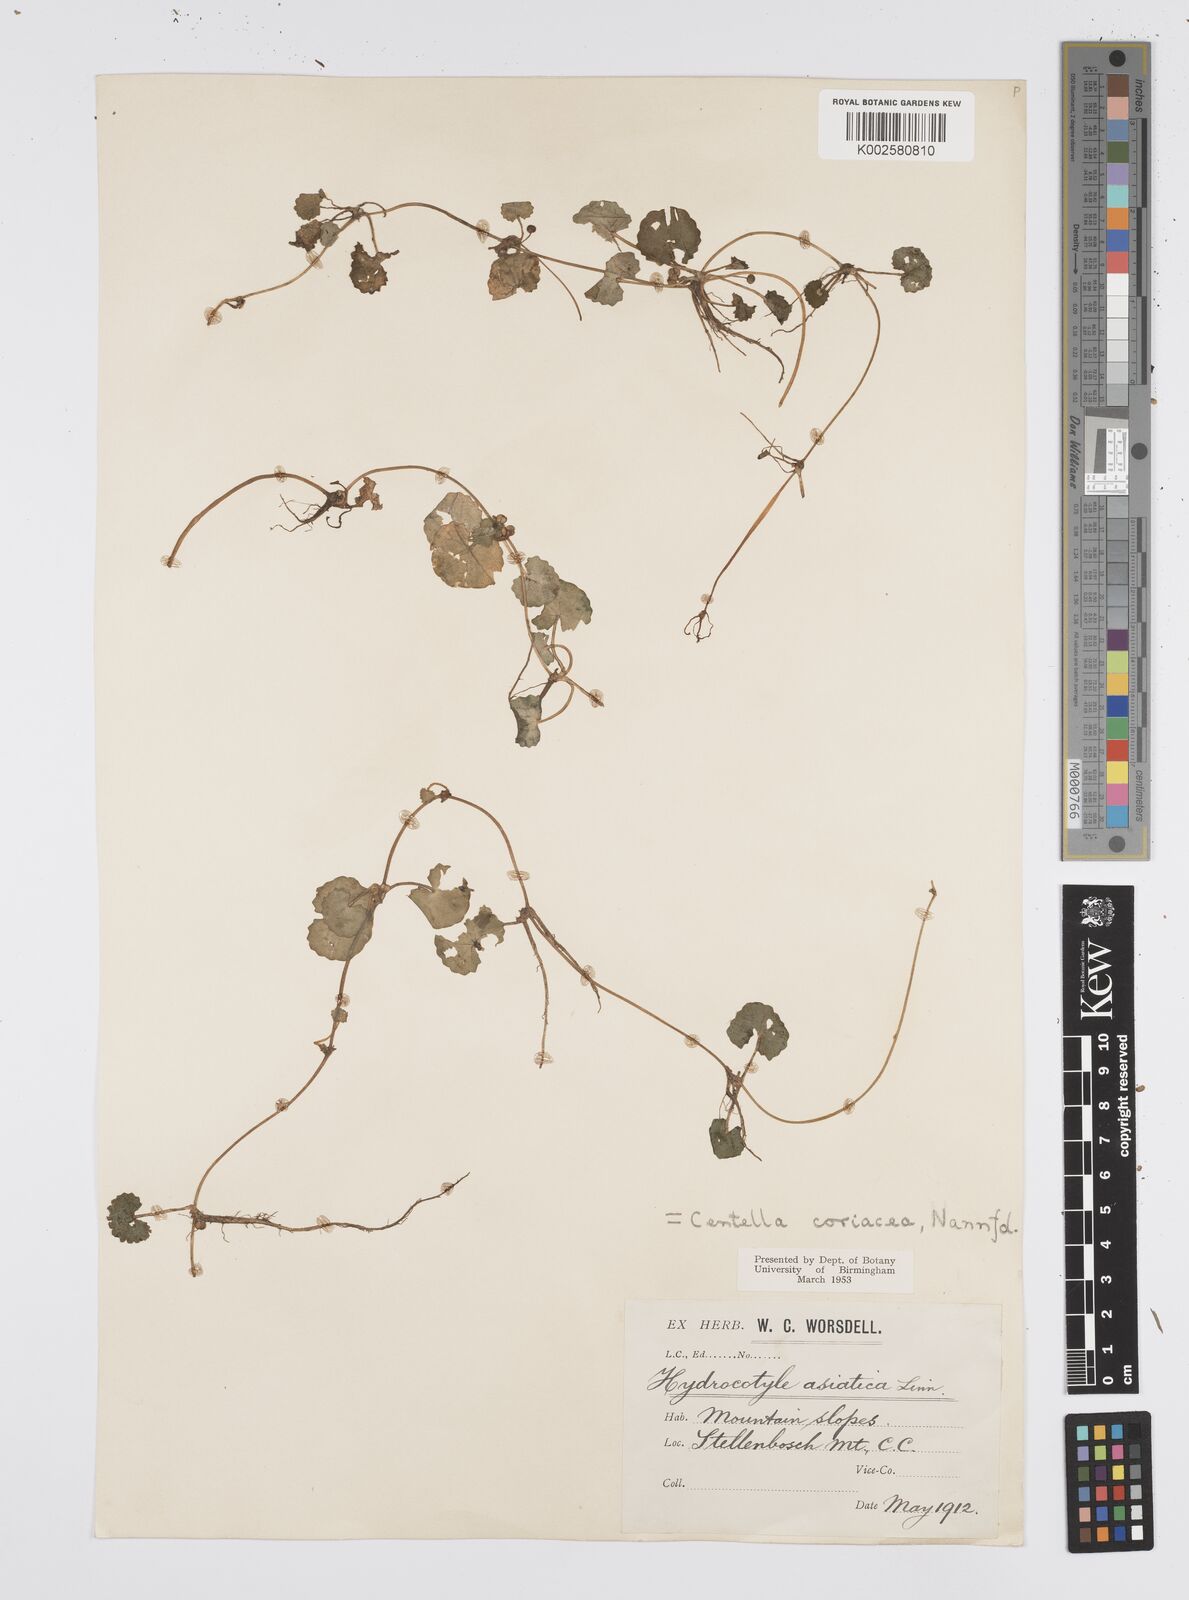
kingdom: Plantae
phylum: Tracheophyta
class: Magnoliopsida
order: Apiales
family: Apiaceae
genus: Centella
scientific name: Centella coriacea
